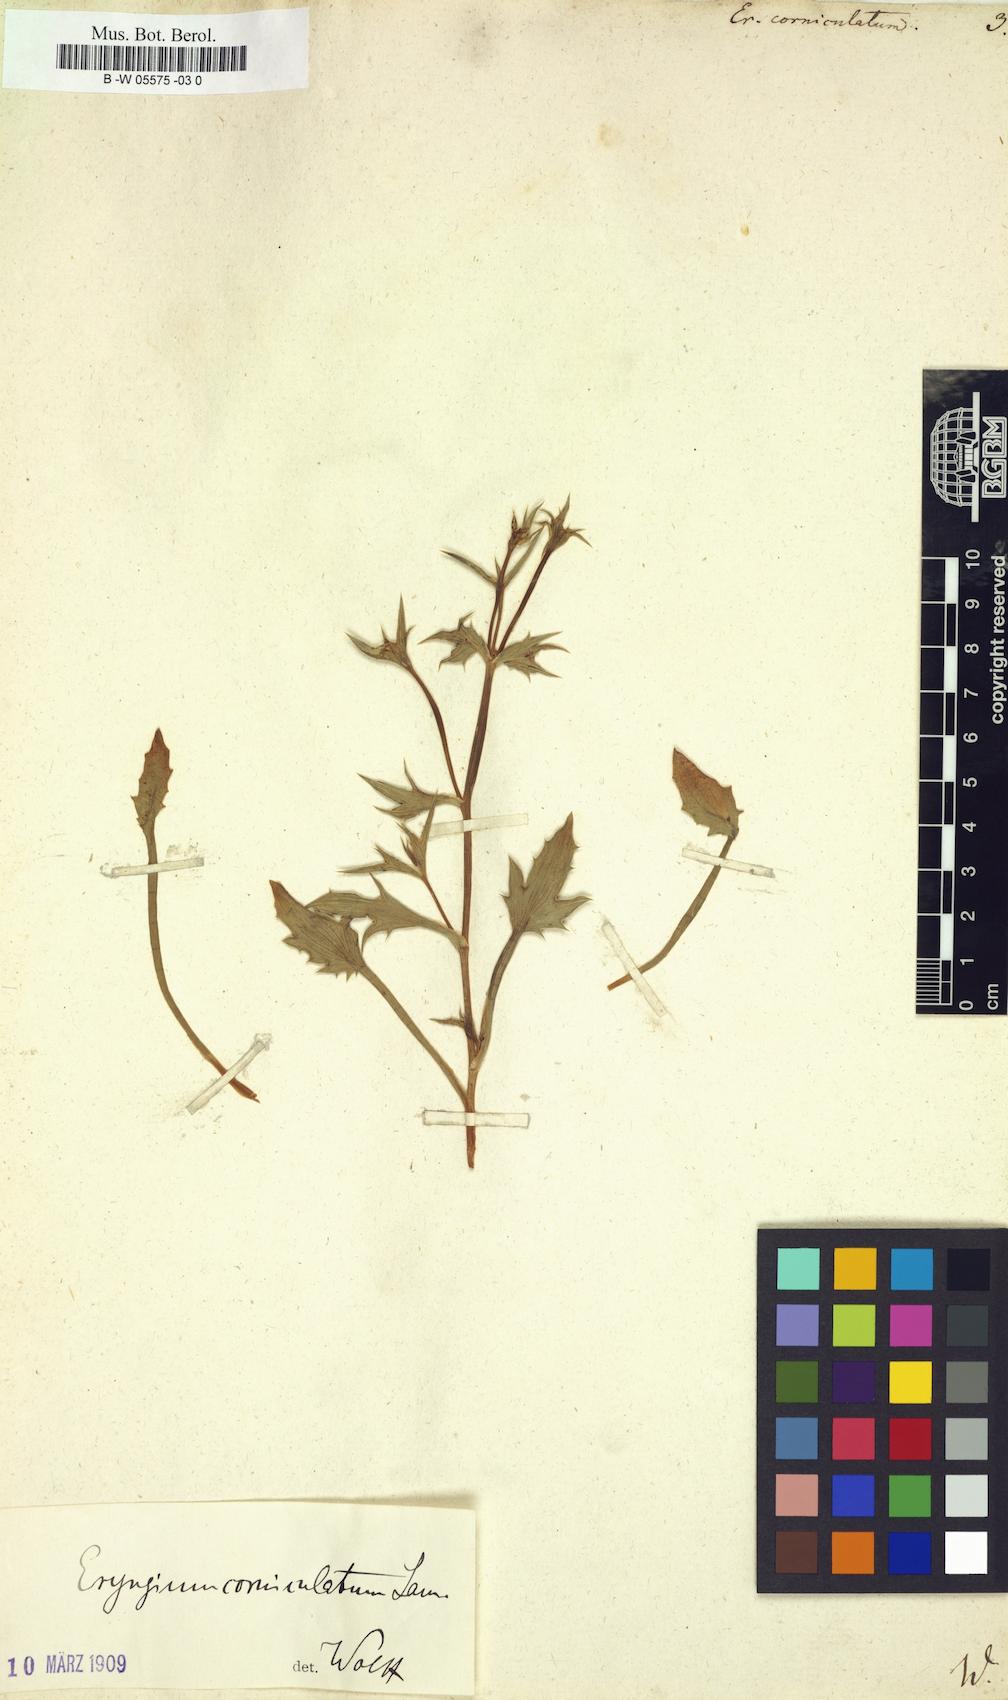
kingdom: Plantae
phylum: Tracheophyta
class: Magnoliopsida
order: Apiales
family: Apiaceae
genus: Eryngium
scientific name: Eryngium corniculatum
